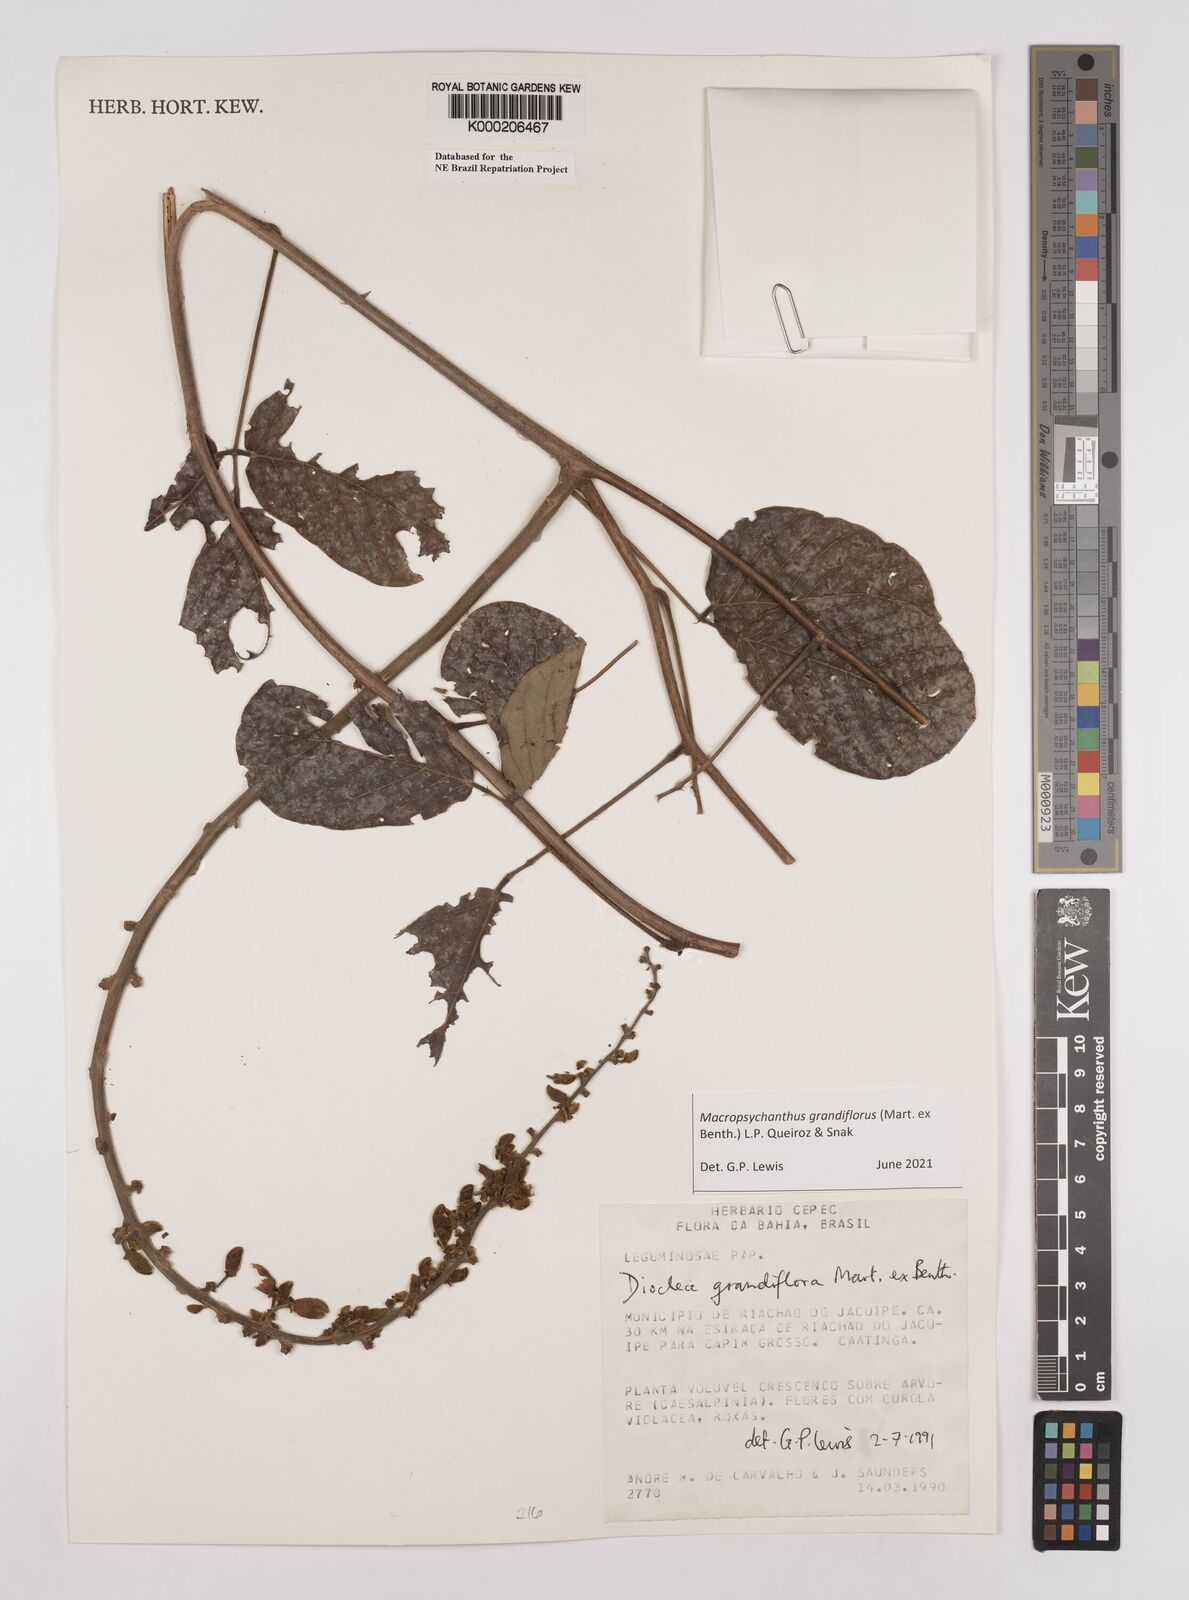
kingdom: Plantae
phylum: Tracheophyta
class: Magnoliopsida
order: Fabales
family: Fabaceae
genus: Macropsychanthus
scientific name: Macropsychanthus grandiflorus
